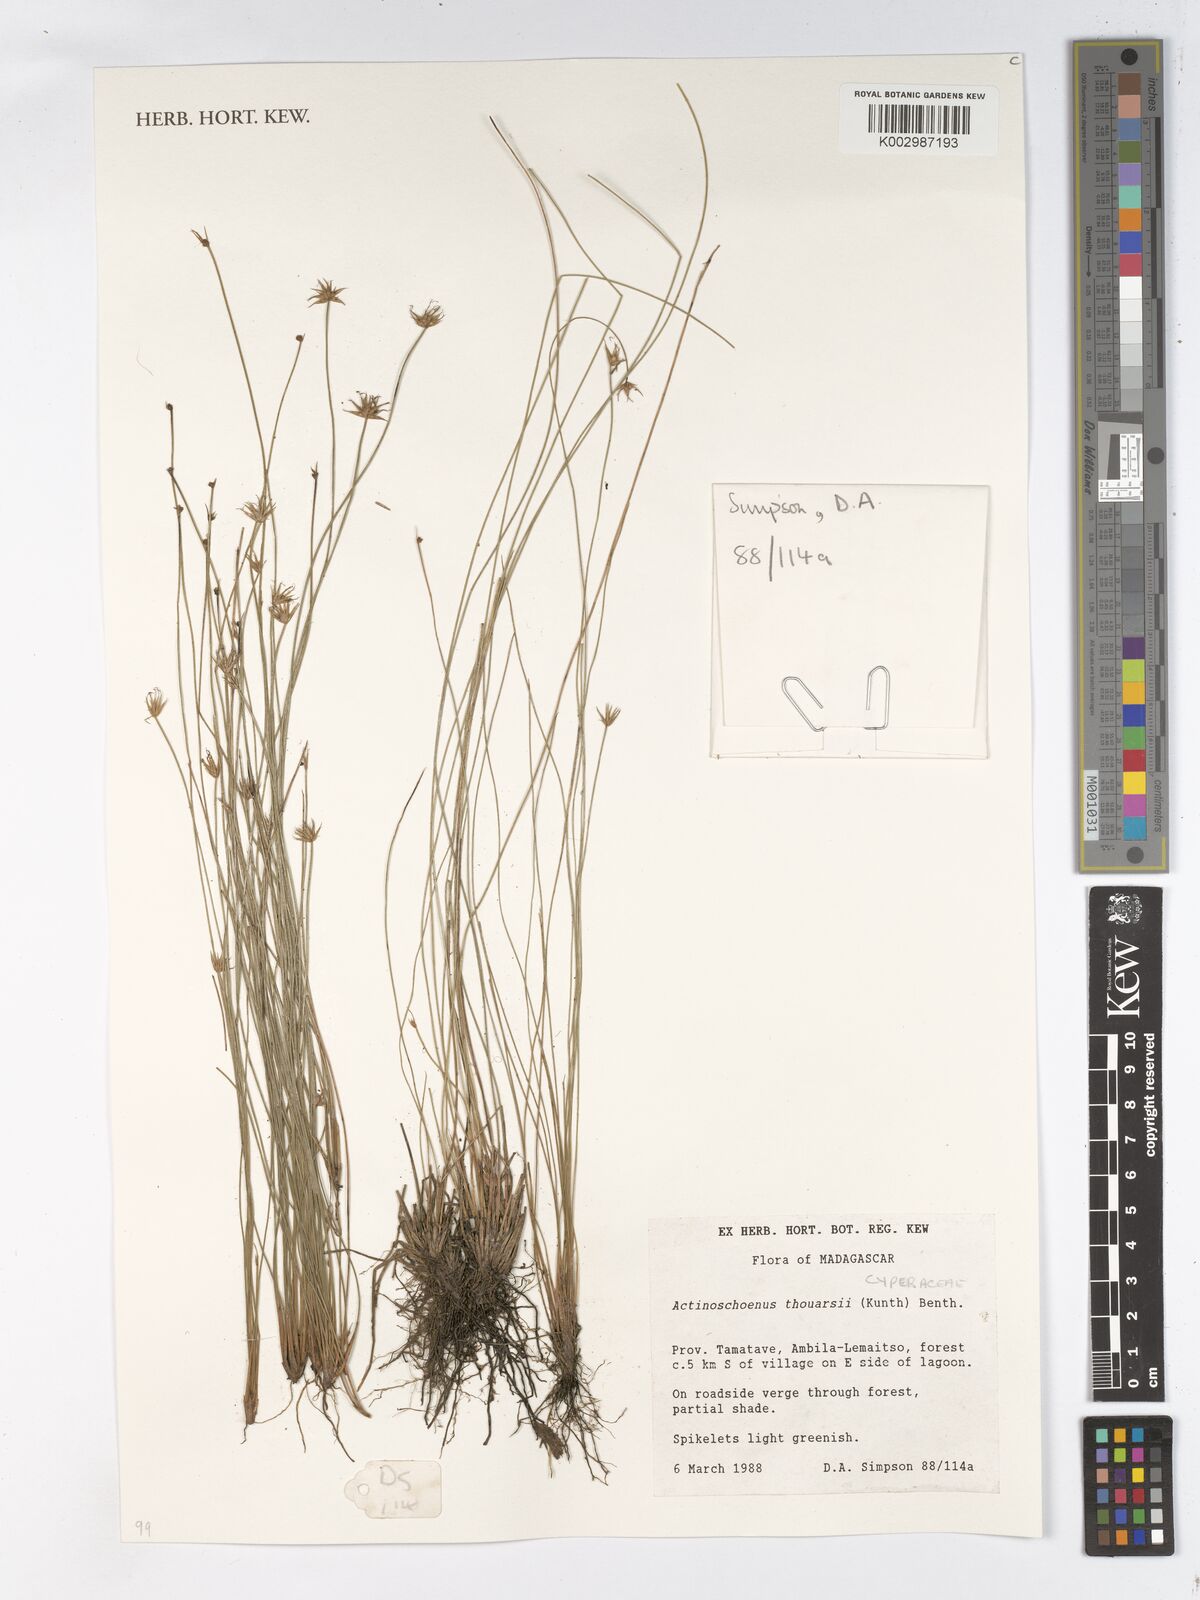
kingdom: Plantae
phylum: Tracheophyta
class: Liliopsida
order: Poales
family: Cyperaceae
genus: Actinoschoenus
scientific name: Actinoschoenus aphyllus
